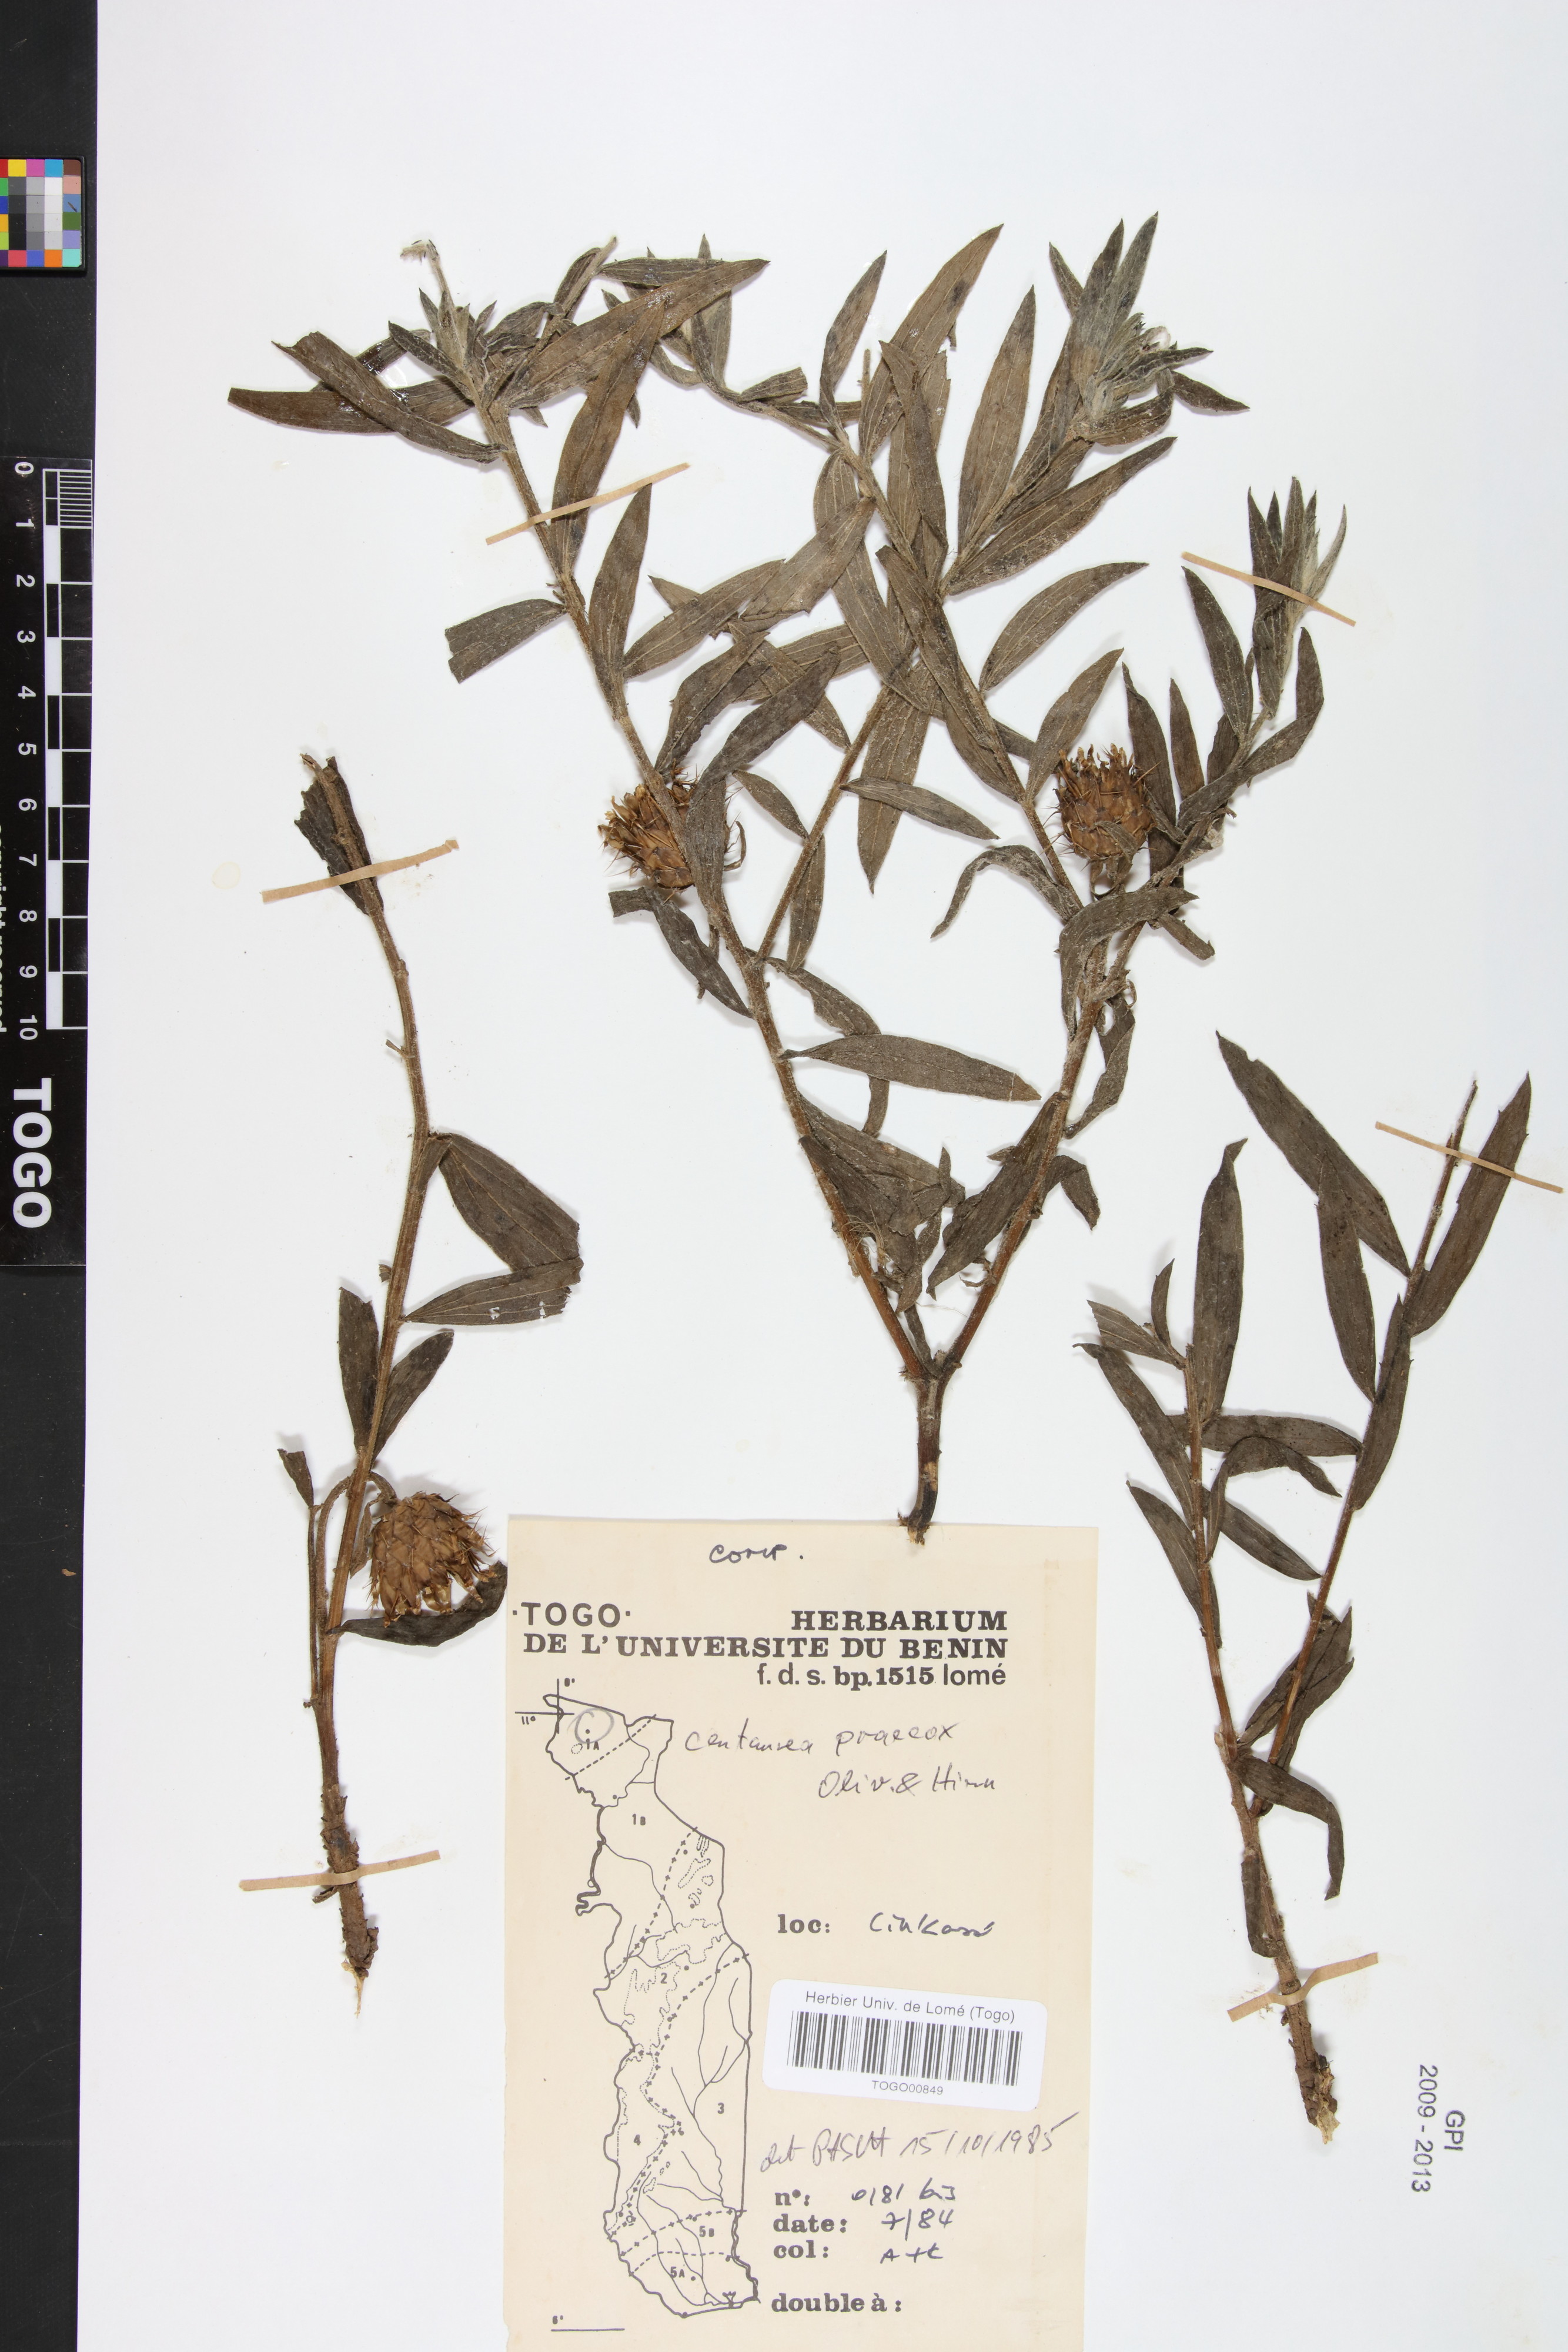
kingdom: Plantae
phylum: Tracheophyta
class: Magnoliopsida
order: Asterales
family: Asteraceae
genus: Centaurea
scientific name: Centaurea praecox
